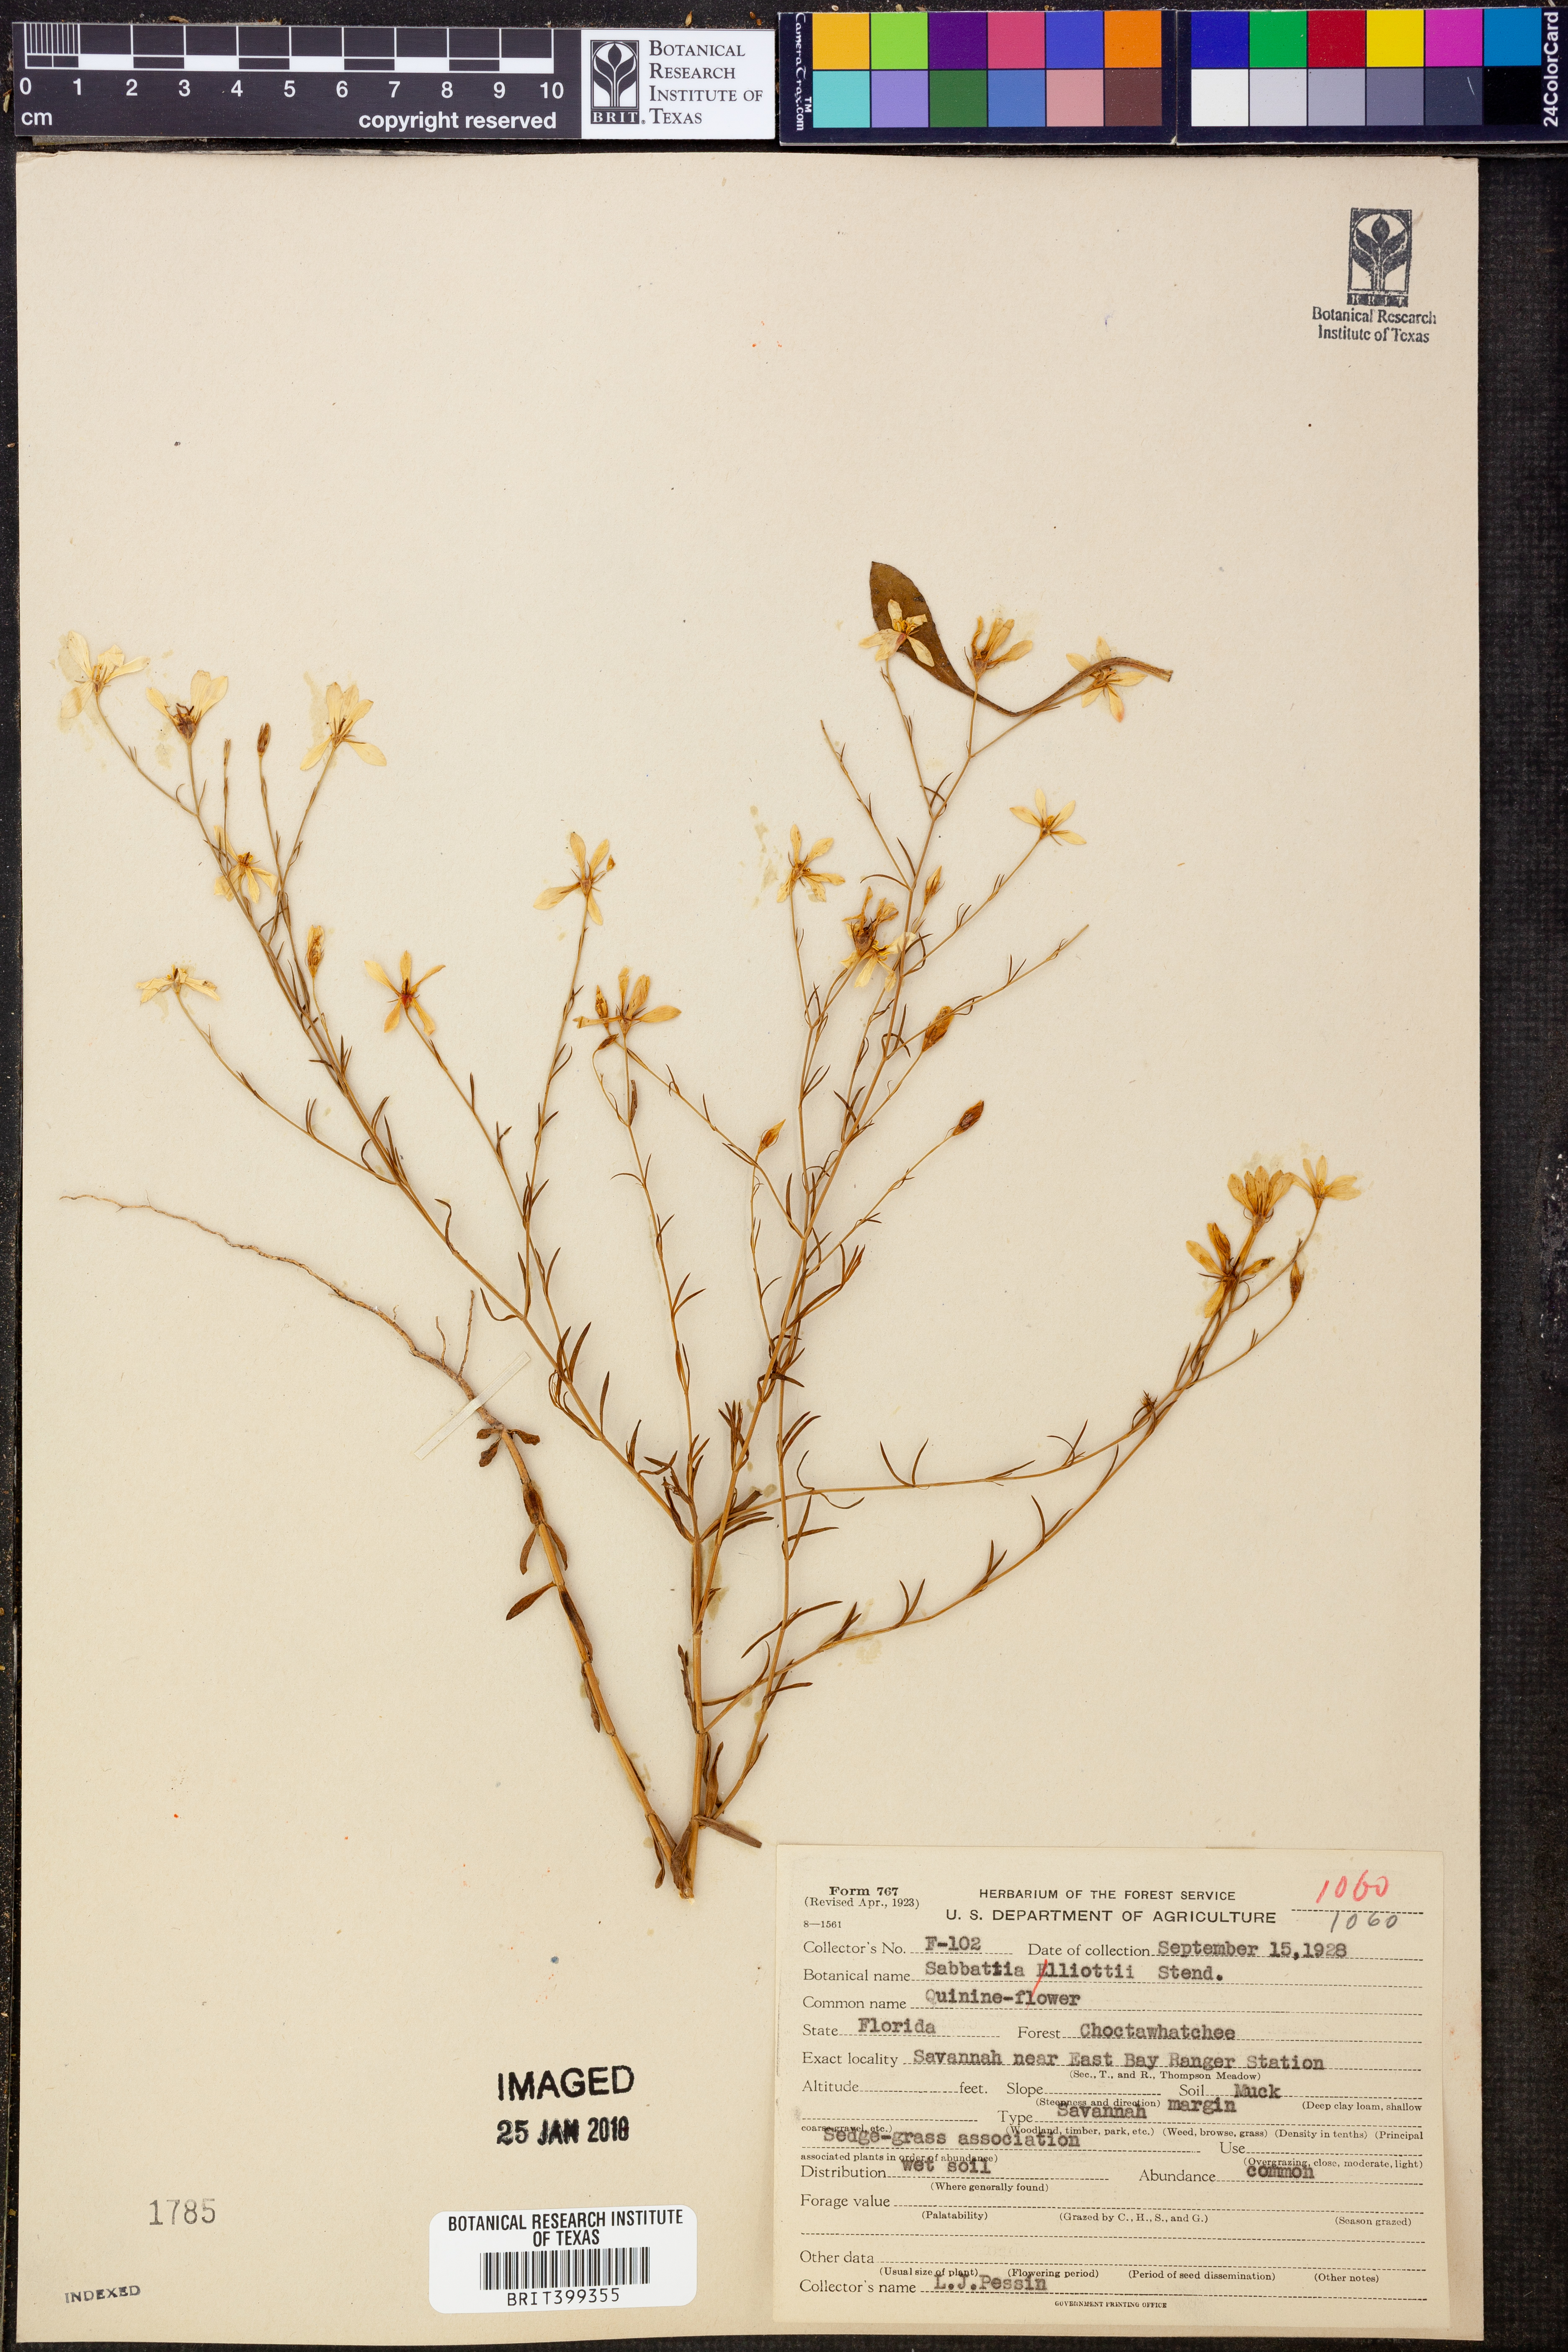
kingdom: Plantae
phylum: Tracheophyta
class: Magnoliopsida
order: Gentianales
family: Gentianaceae
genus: Sabatia
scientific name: Sabatia brevifolia
